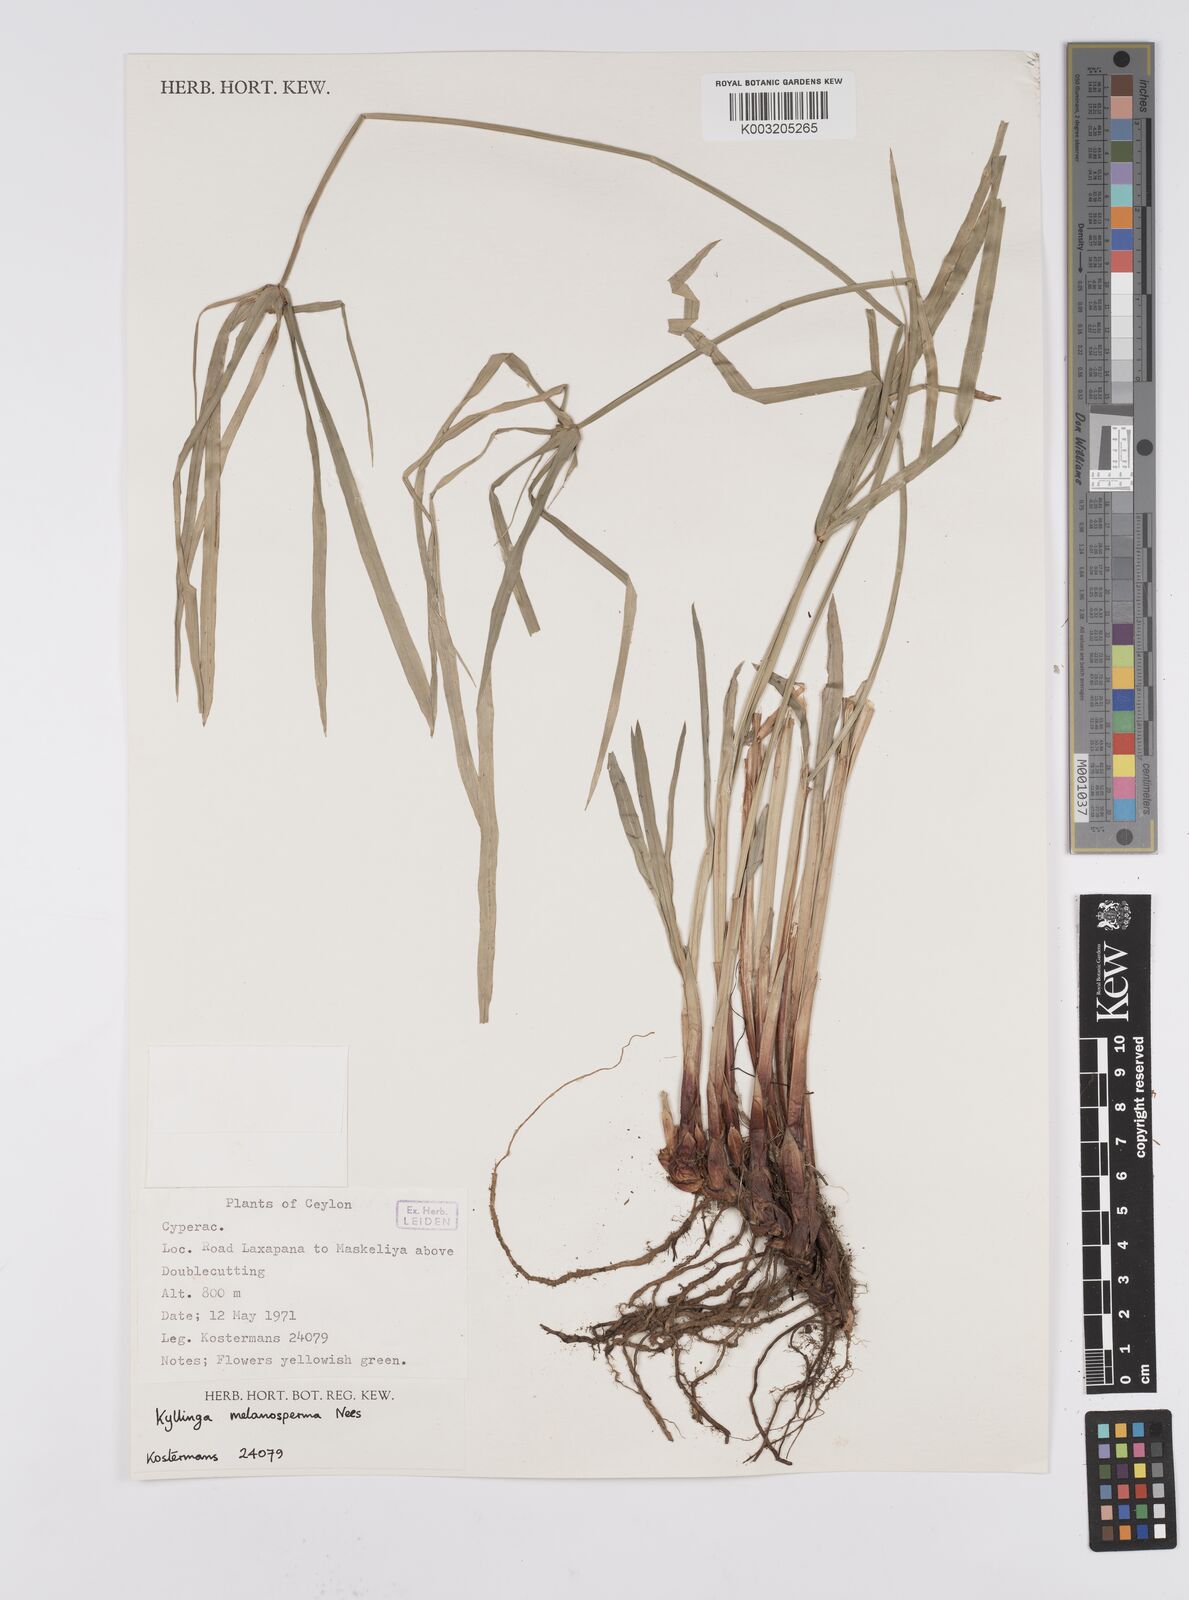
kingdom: Plantae
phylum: Tracheophyta
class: Liliopsida
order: Poales
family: Cyperaceae
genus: Cyperus
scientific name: Cyperus melanospermus
